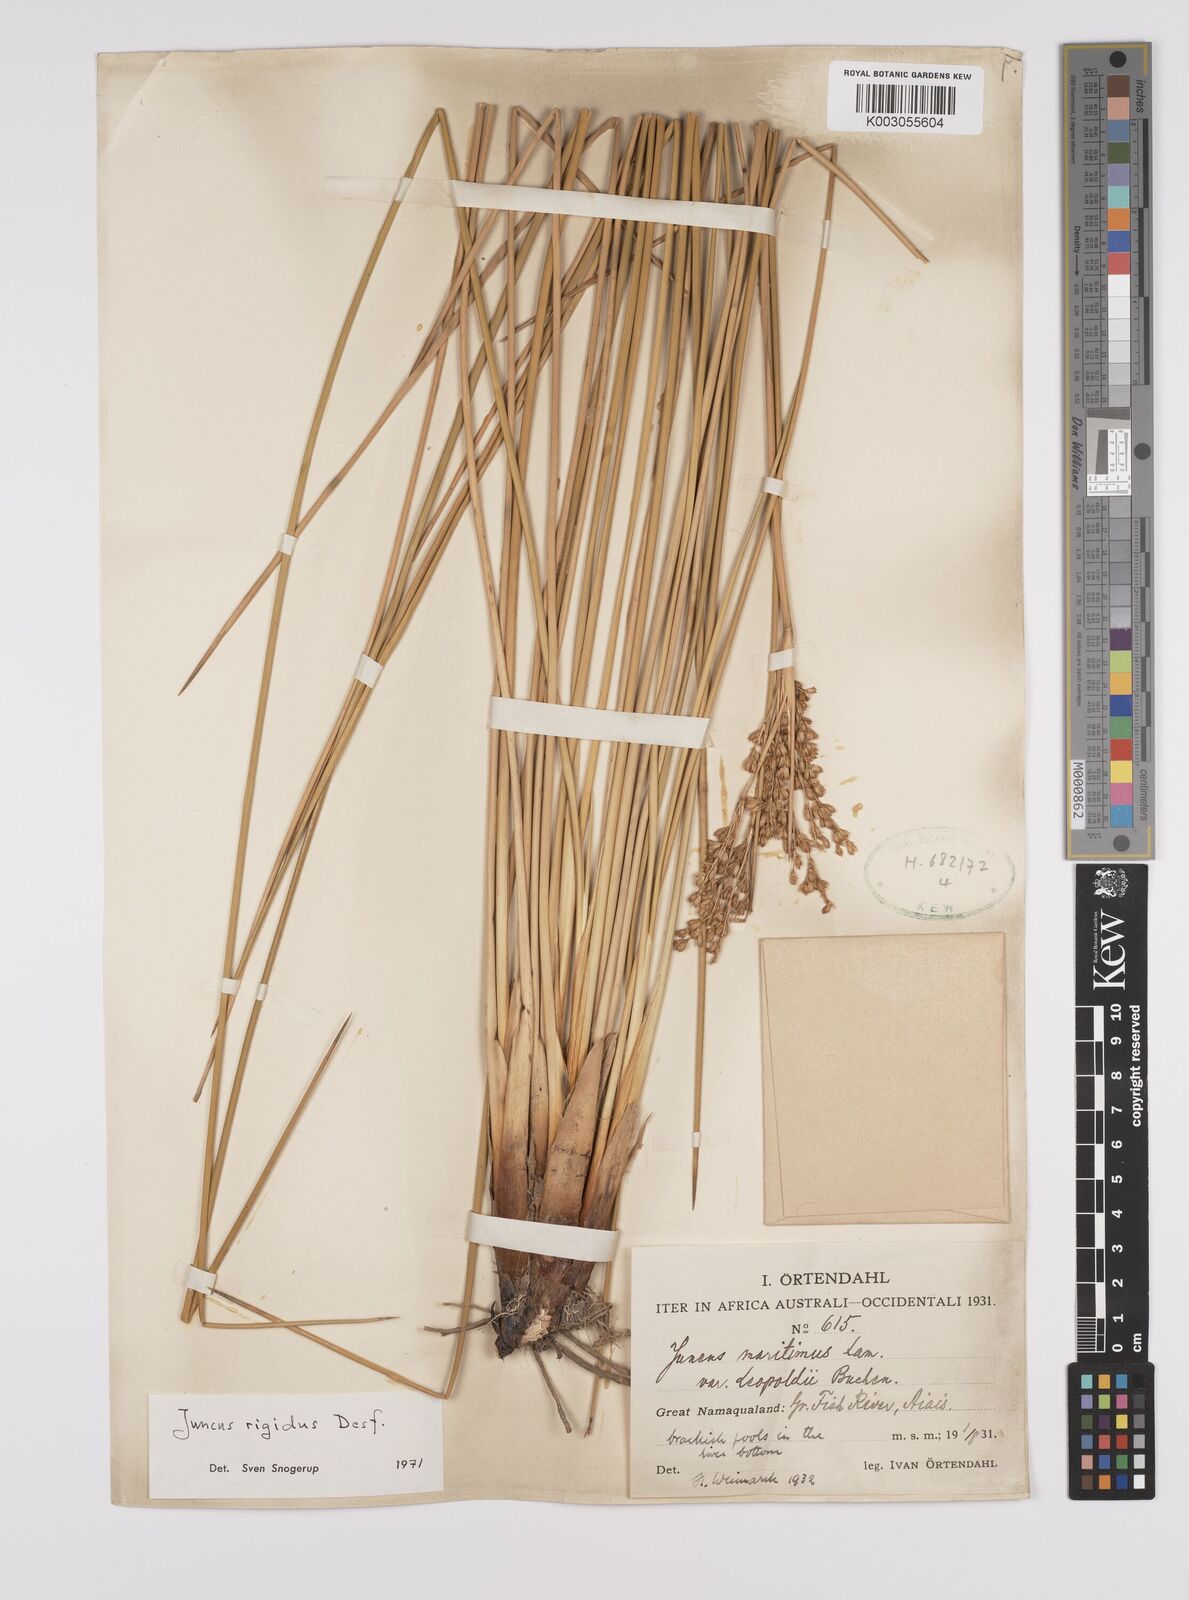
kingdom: Plantae
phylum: Tracheophyta
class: Liliopsida
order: Poales
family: Juncaceae
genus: Juncus
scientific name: Juncus rigidus
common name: Hard sea rush
